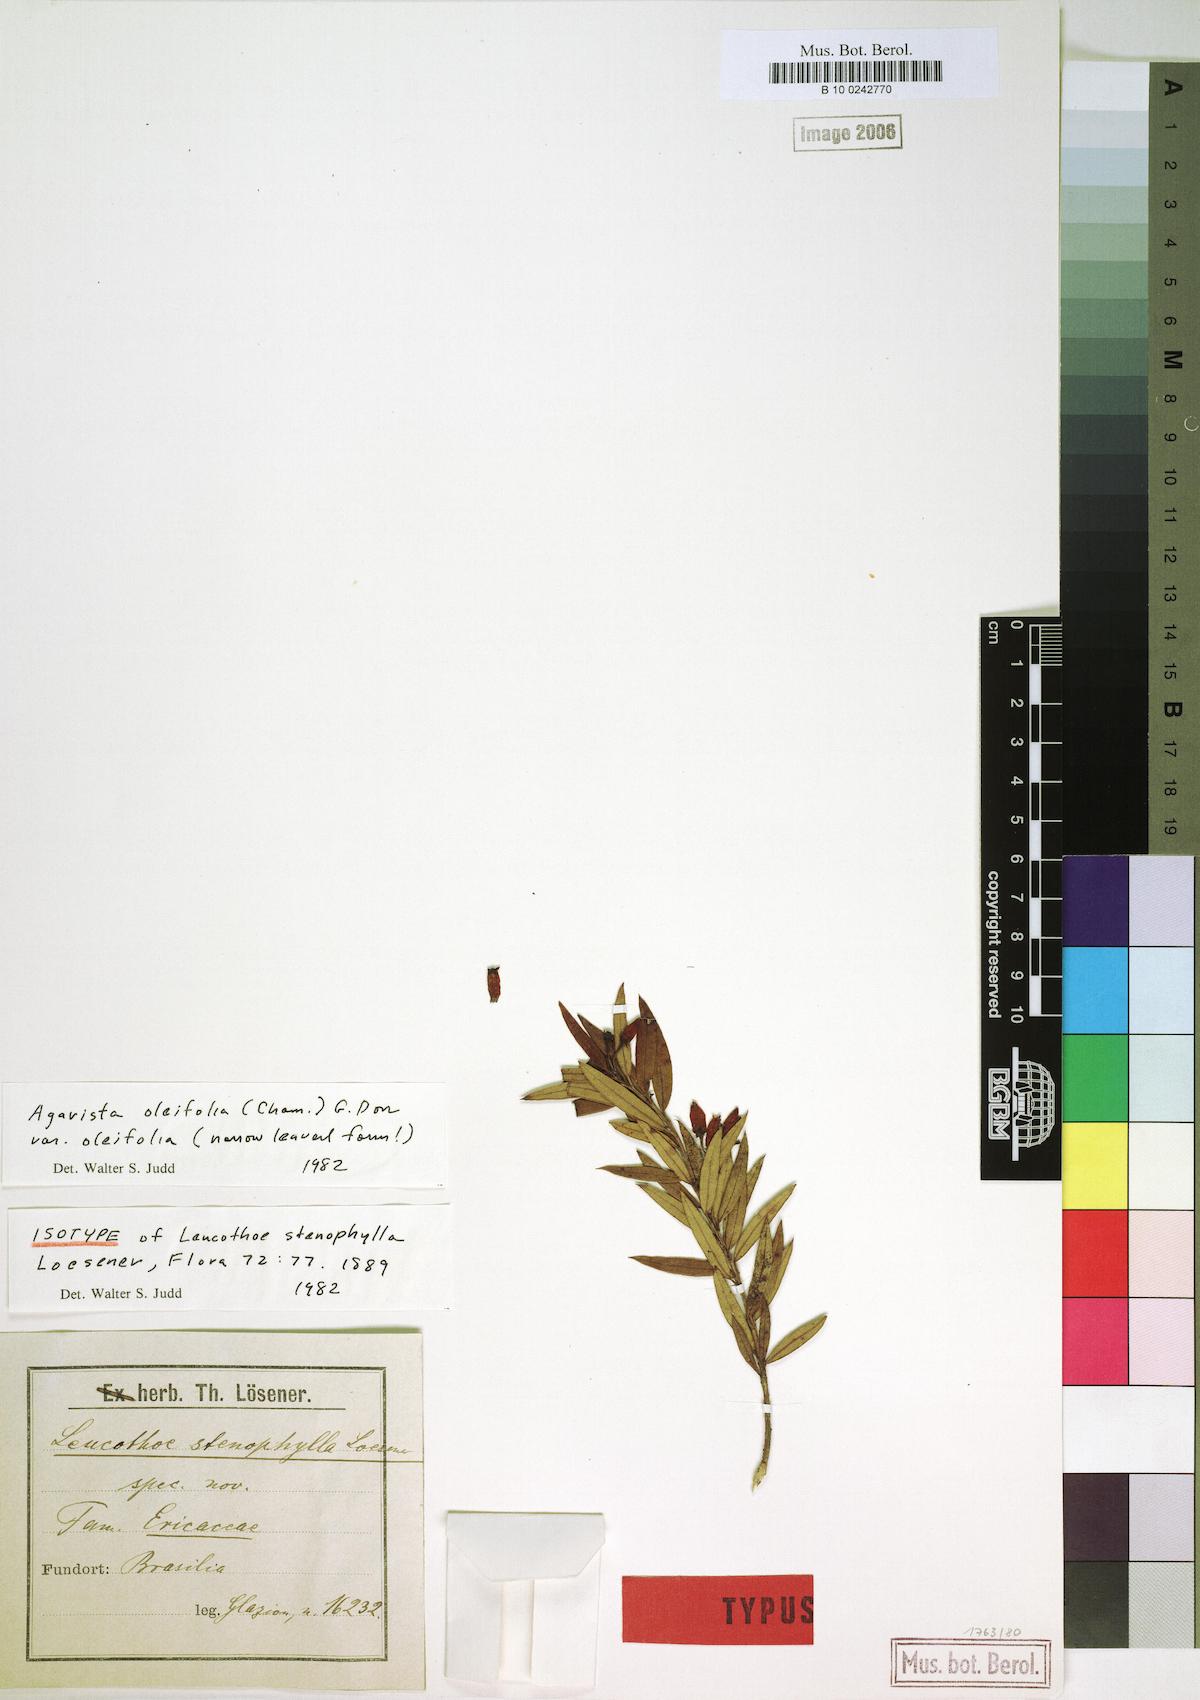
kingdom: Plantae
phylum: Tracheophyta
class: Magnoliopsida
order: Ericales
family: Ericaceae
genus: Agarista
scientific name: Agarista oleifolia
